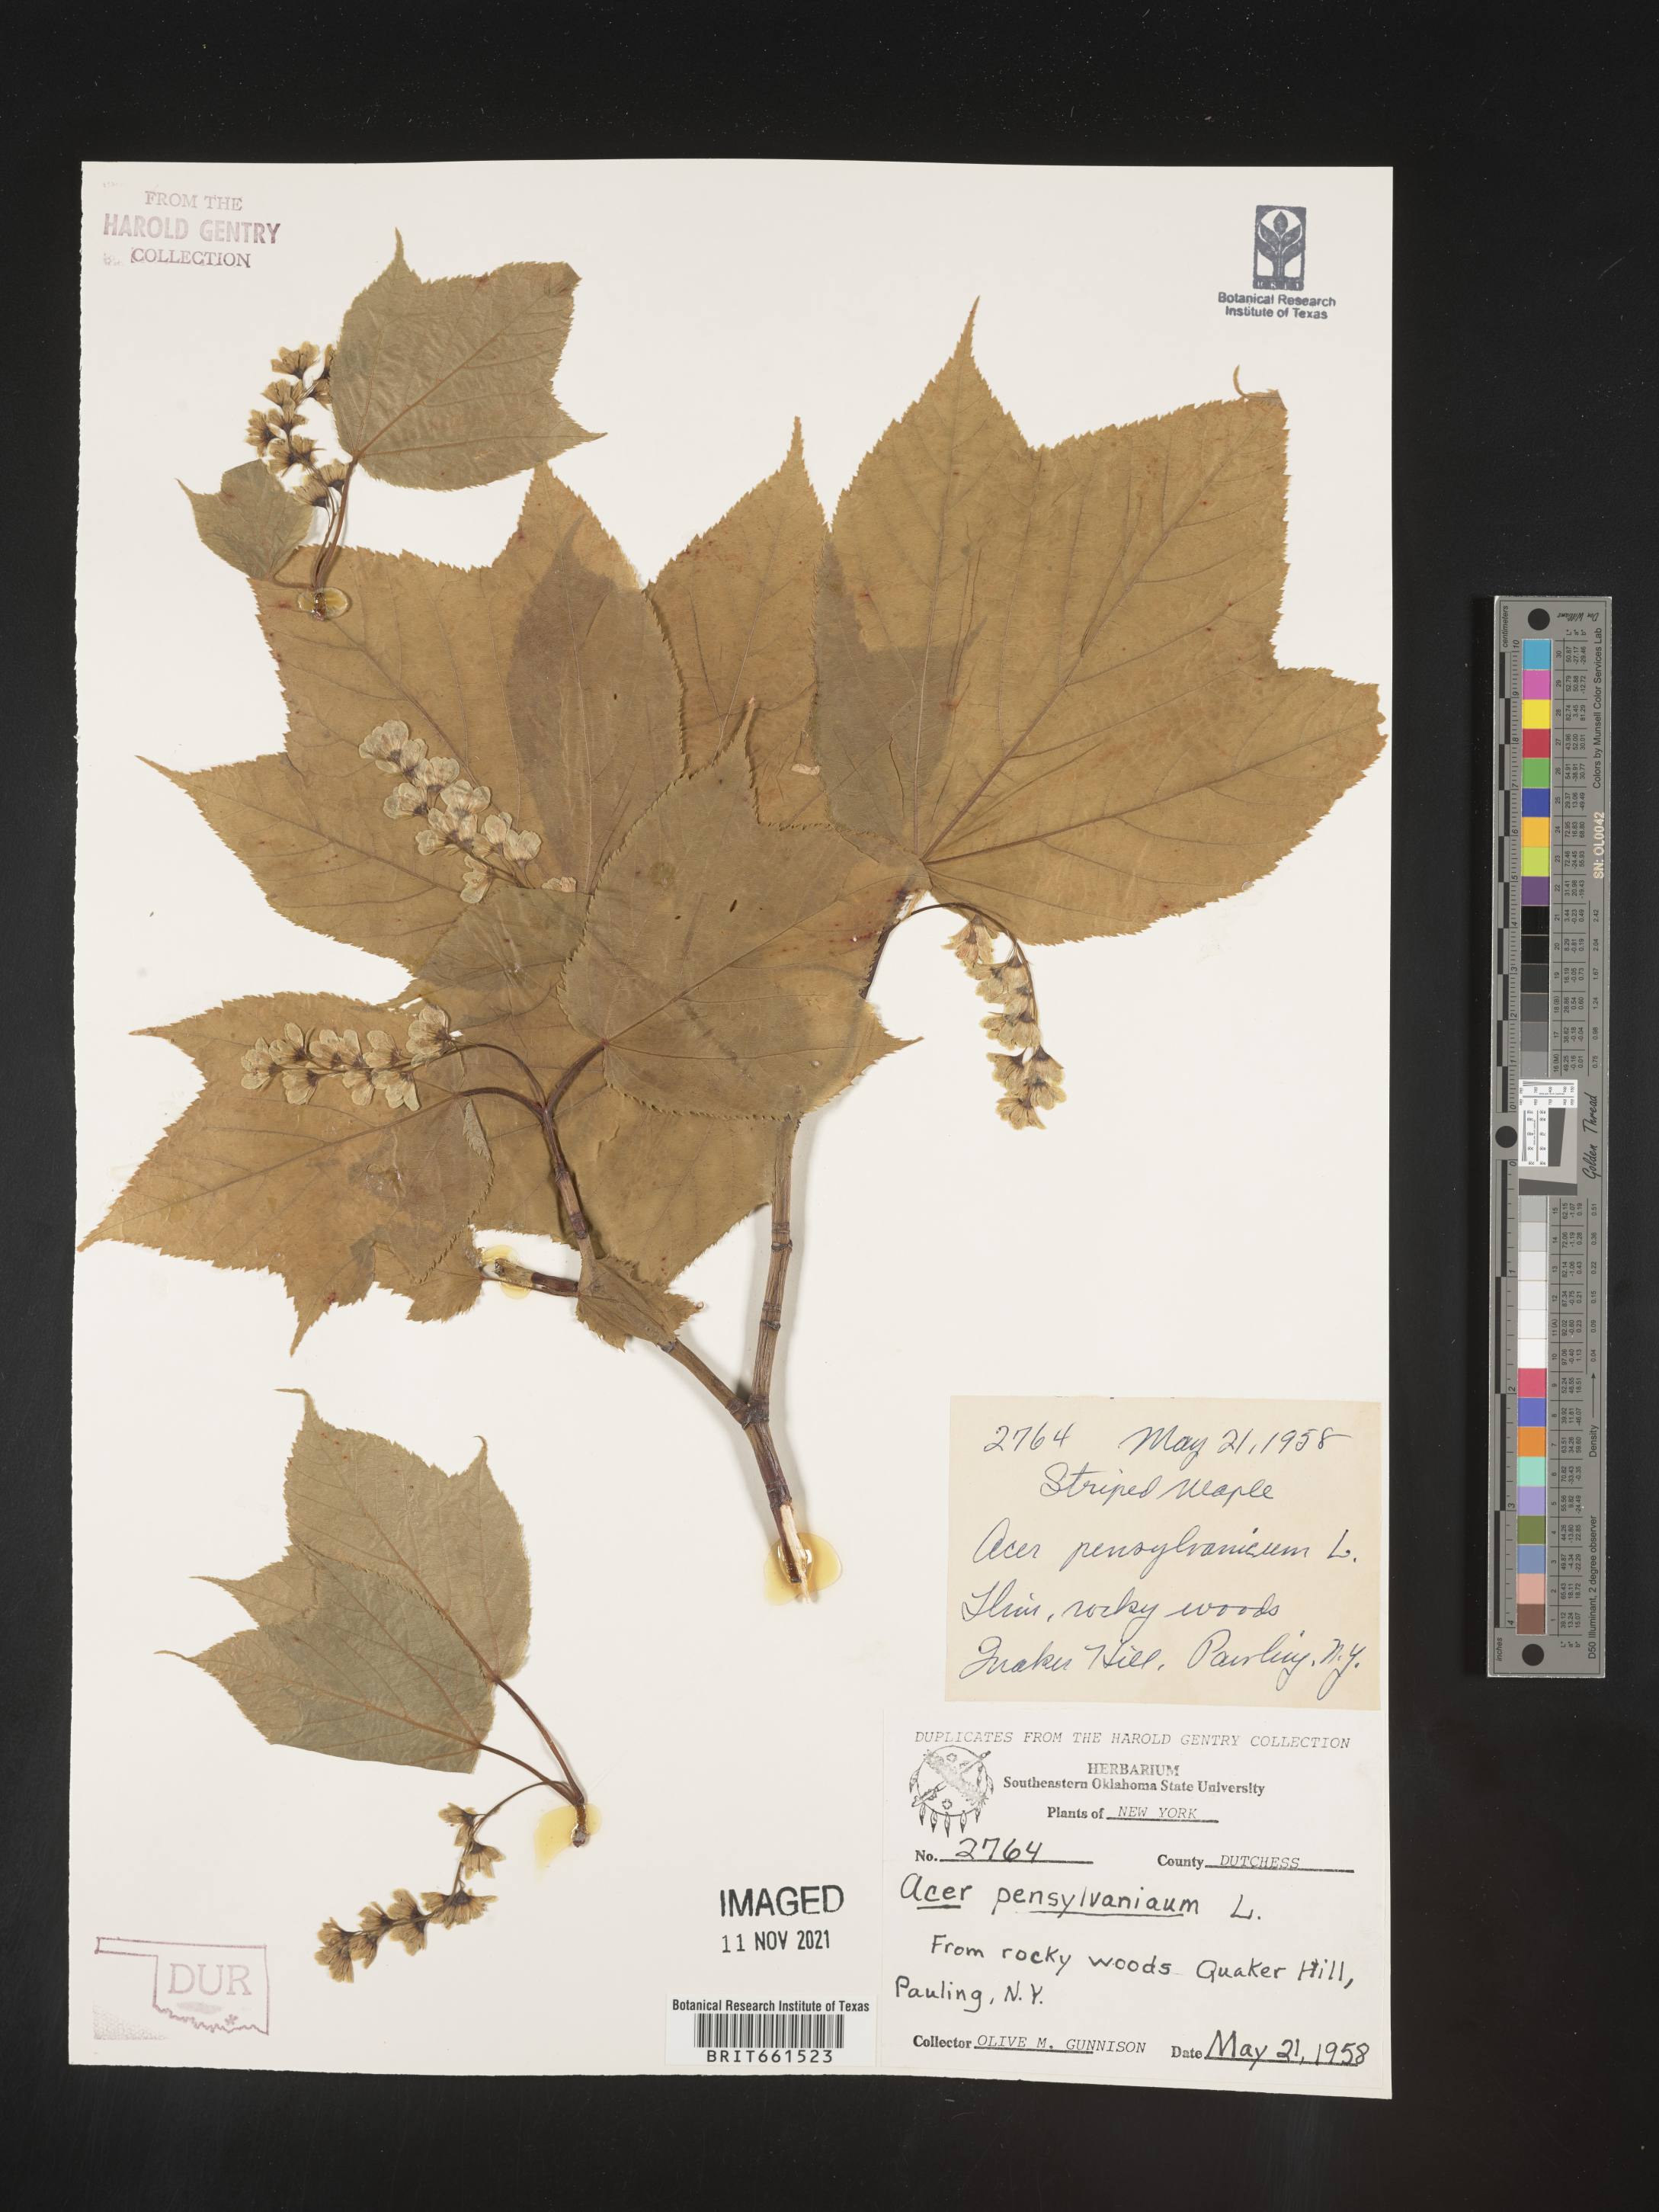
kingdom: Plantae
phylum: Tracheophyta
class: Magnoliopsida
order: Sapindales
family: Sapindaceae
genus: Acer
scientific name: Acer pensylvanicum
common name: Moosewood
